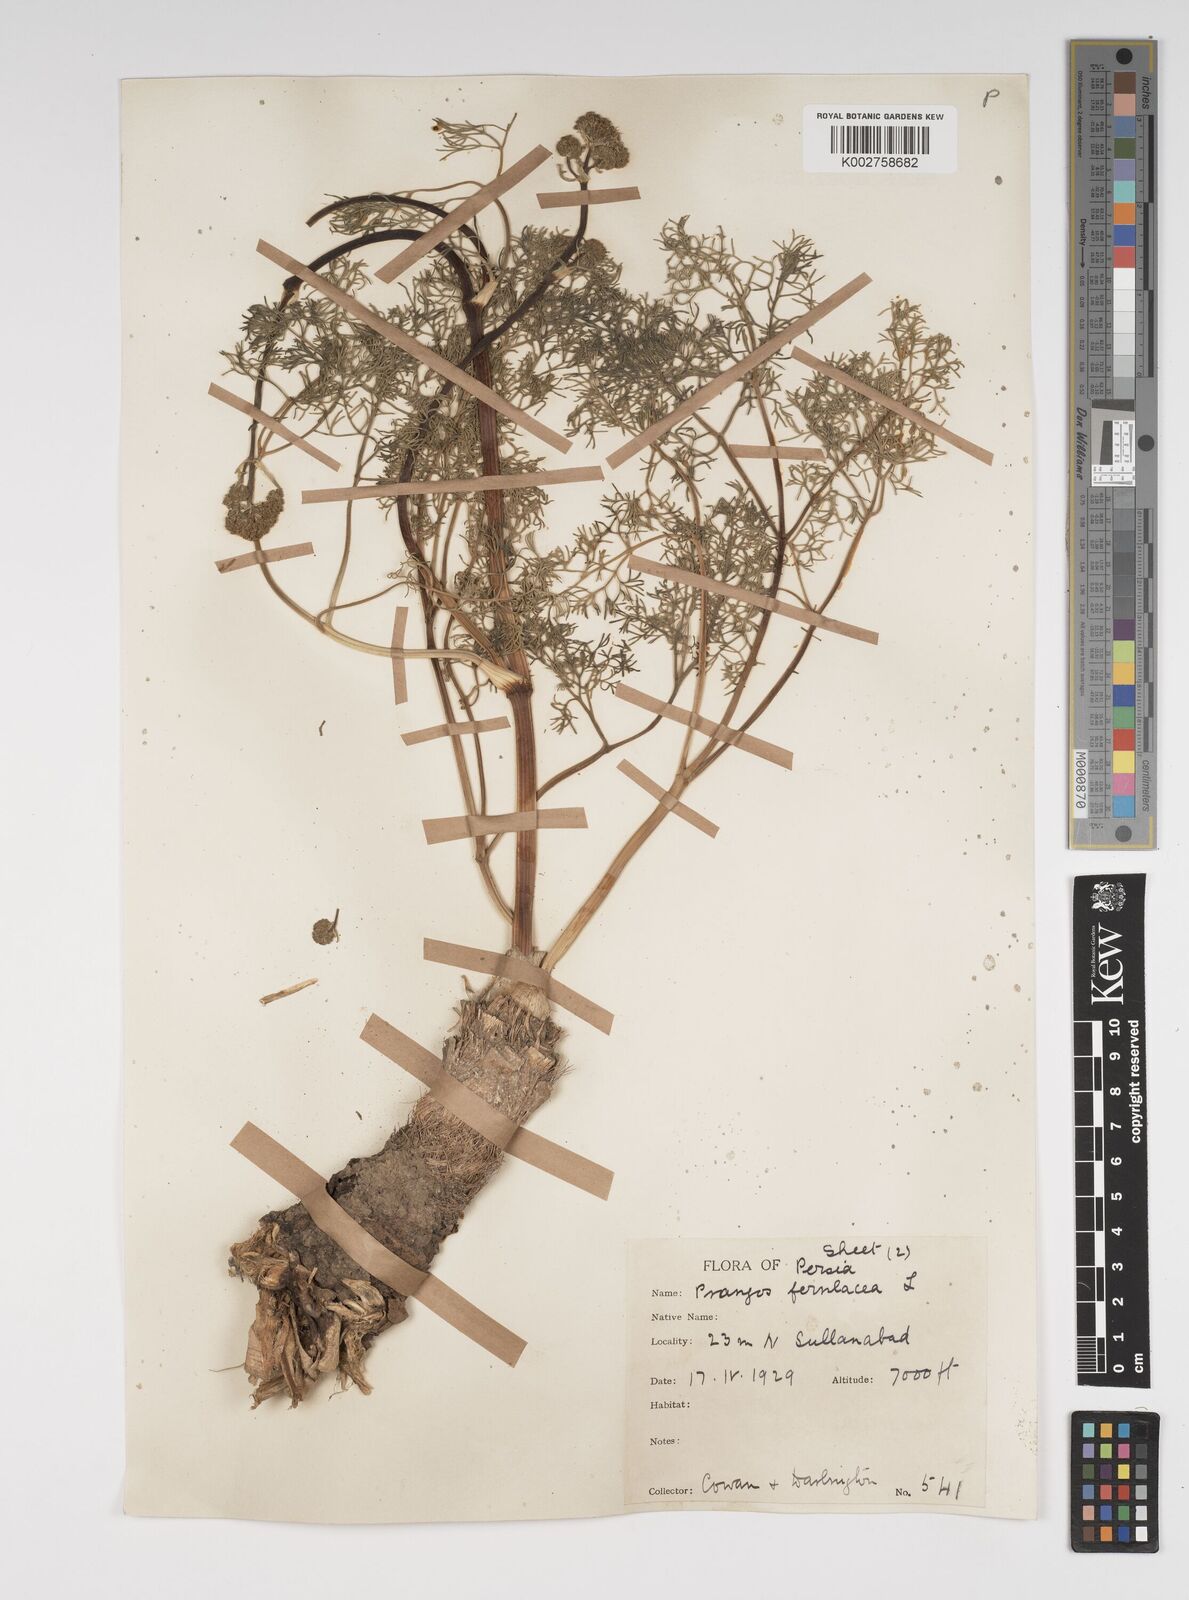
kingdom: Plantae
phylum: Tracheophyta
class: Magnoliopsida
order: Apiales
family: Apiaceae
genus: Prangos
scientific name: Prangos ferulacea
